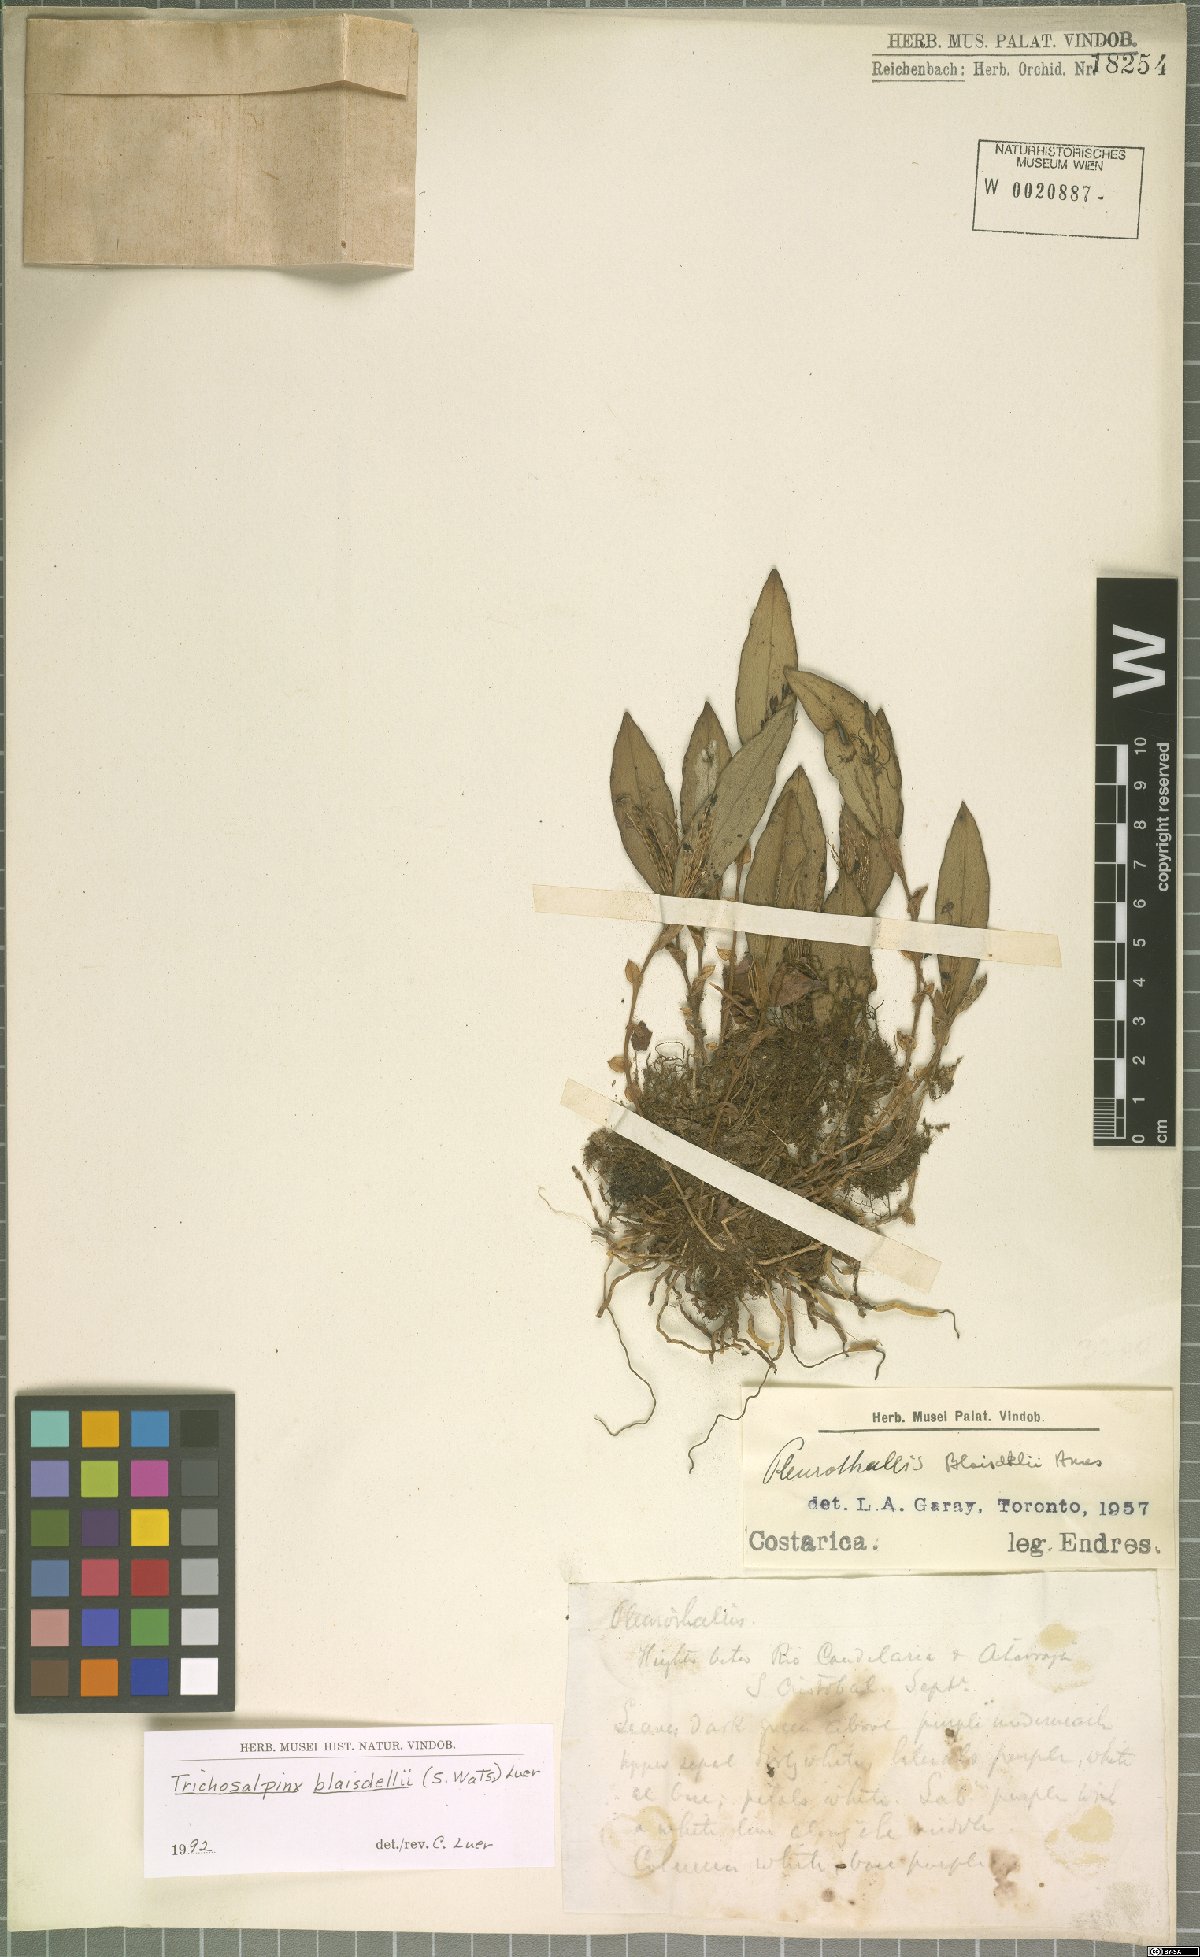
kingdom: Plantae
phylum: Tracheophyta
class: Liliopsida
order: Asparagales
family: Orchidaceae
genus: Trichosalpinx
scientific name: Trichosalpinx blaisdellii
